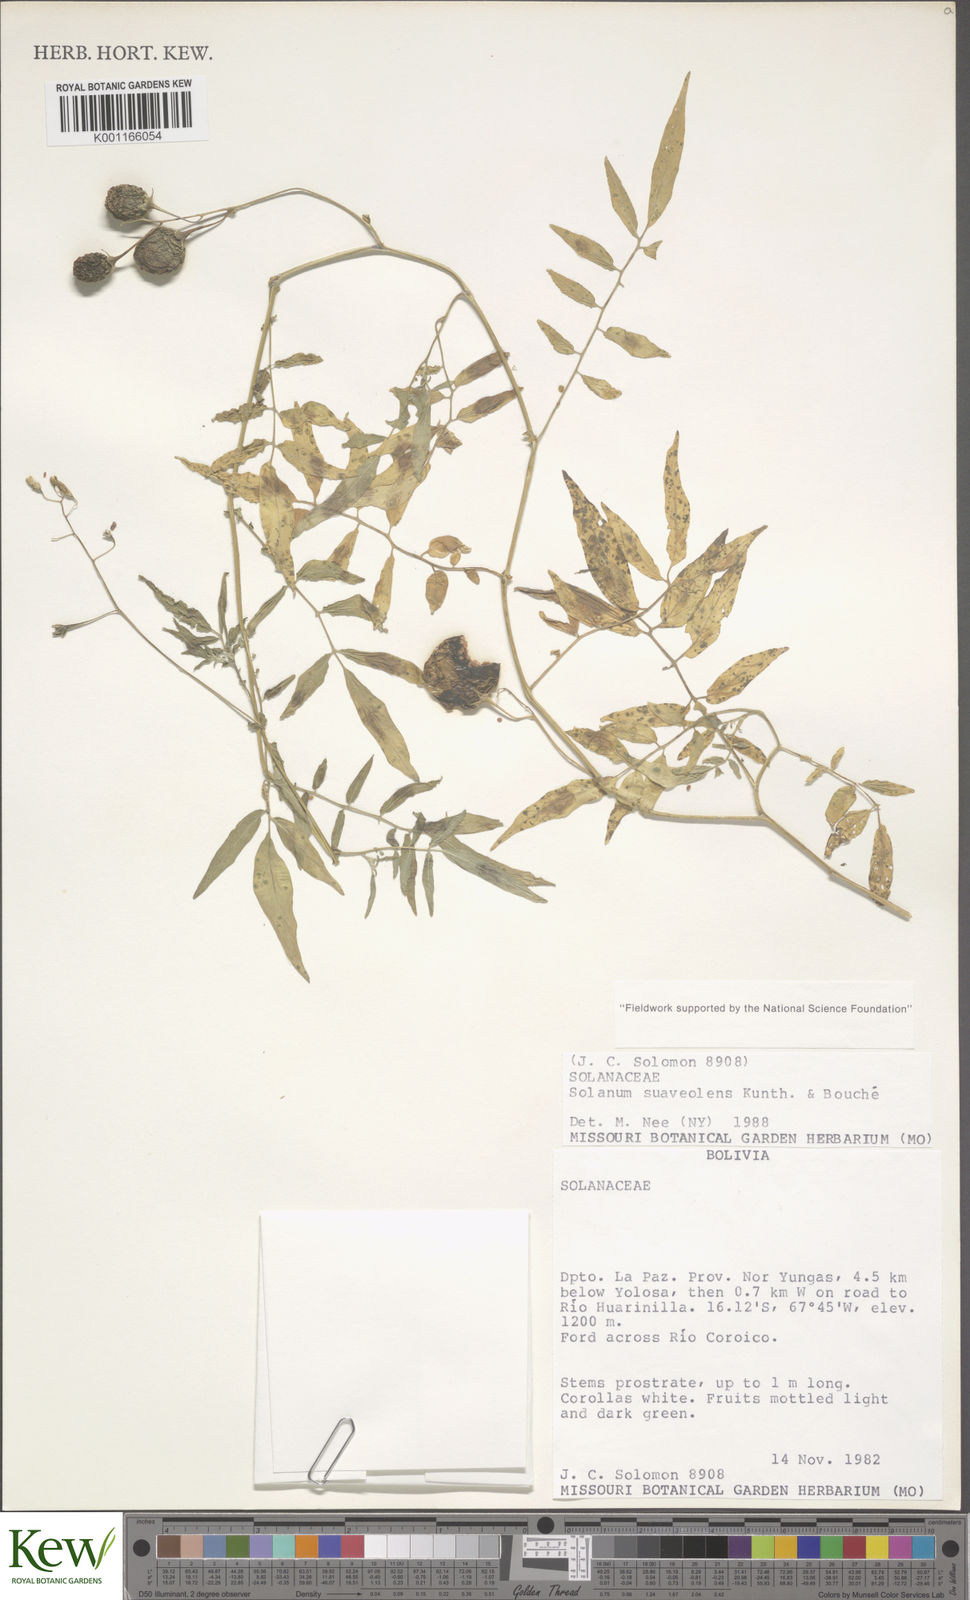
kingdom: Plantae
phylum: Tracheophyta
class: Magnoliopsida
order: Solanales
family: Solanaceae
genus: Solanum
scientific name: Solanum suaveolens
